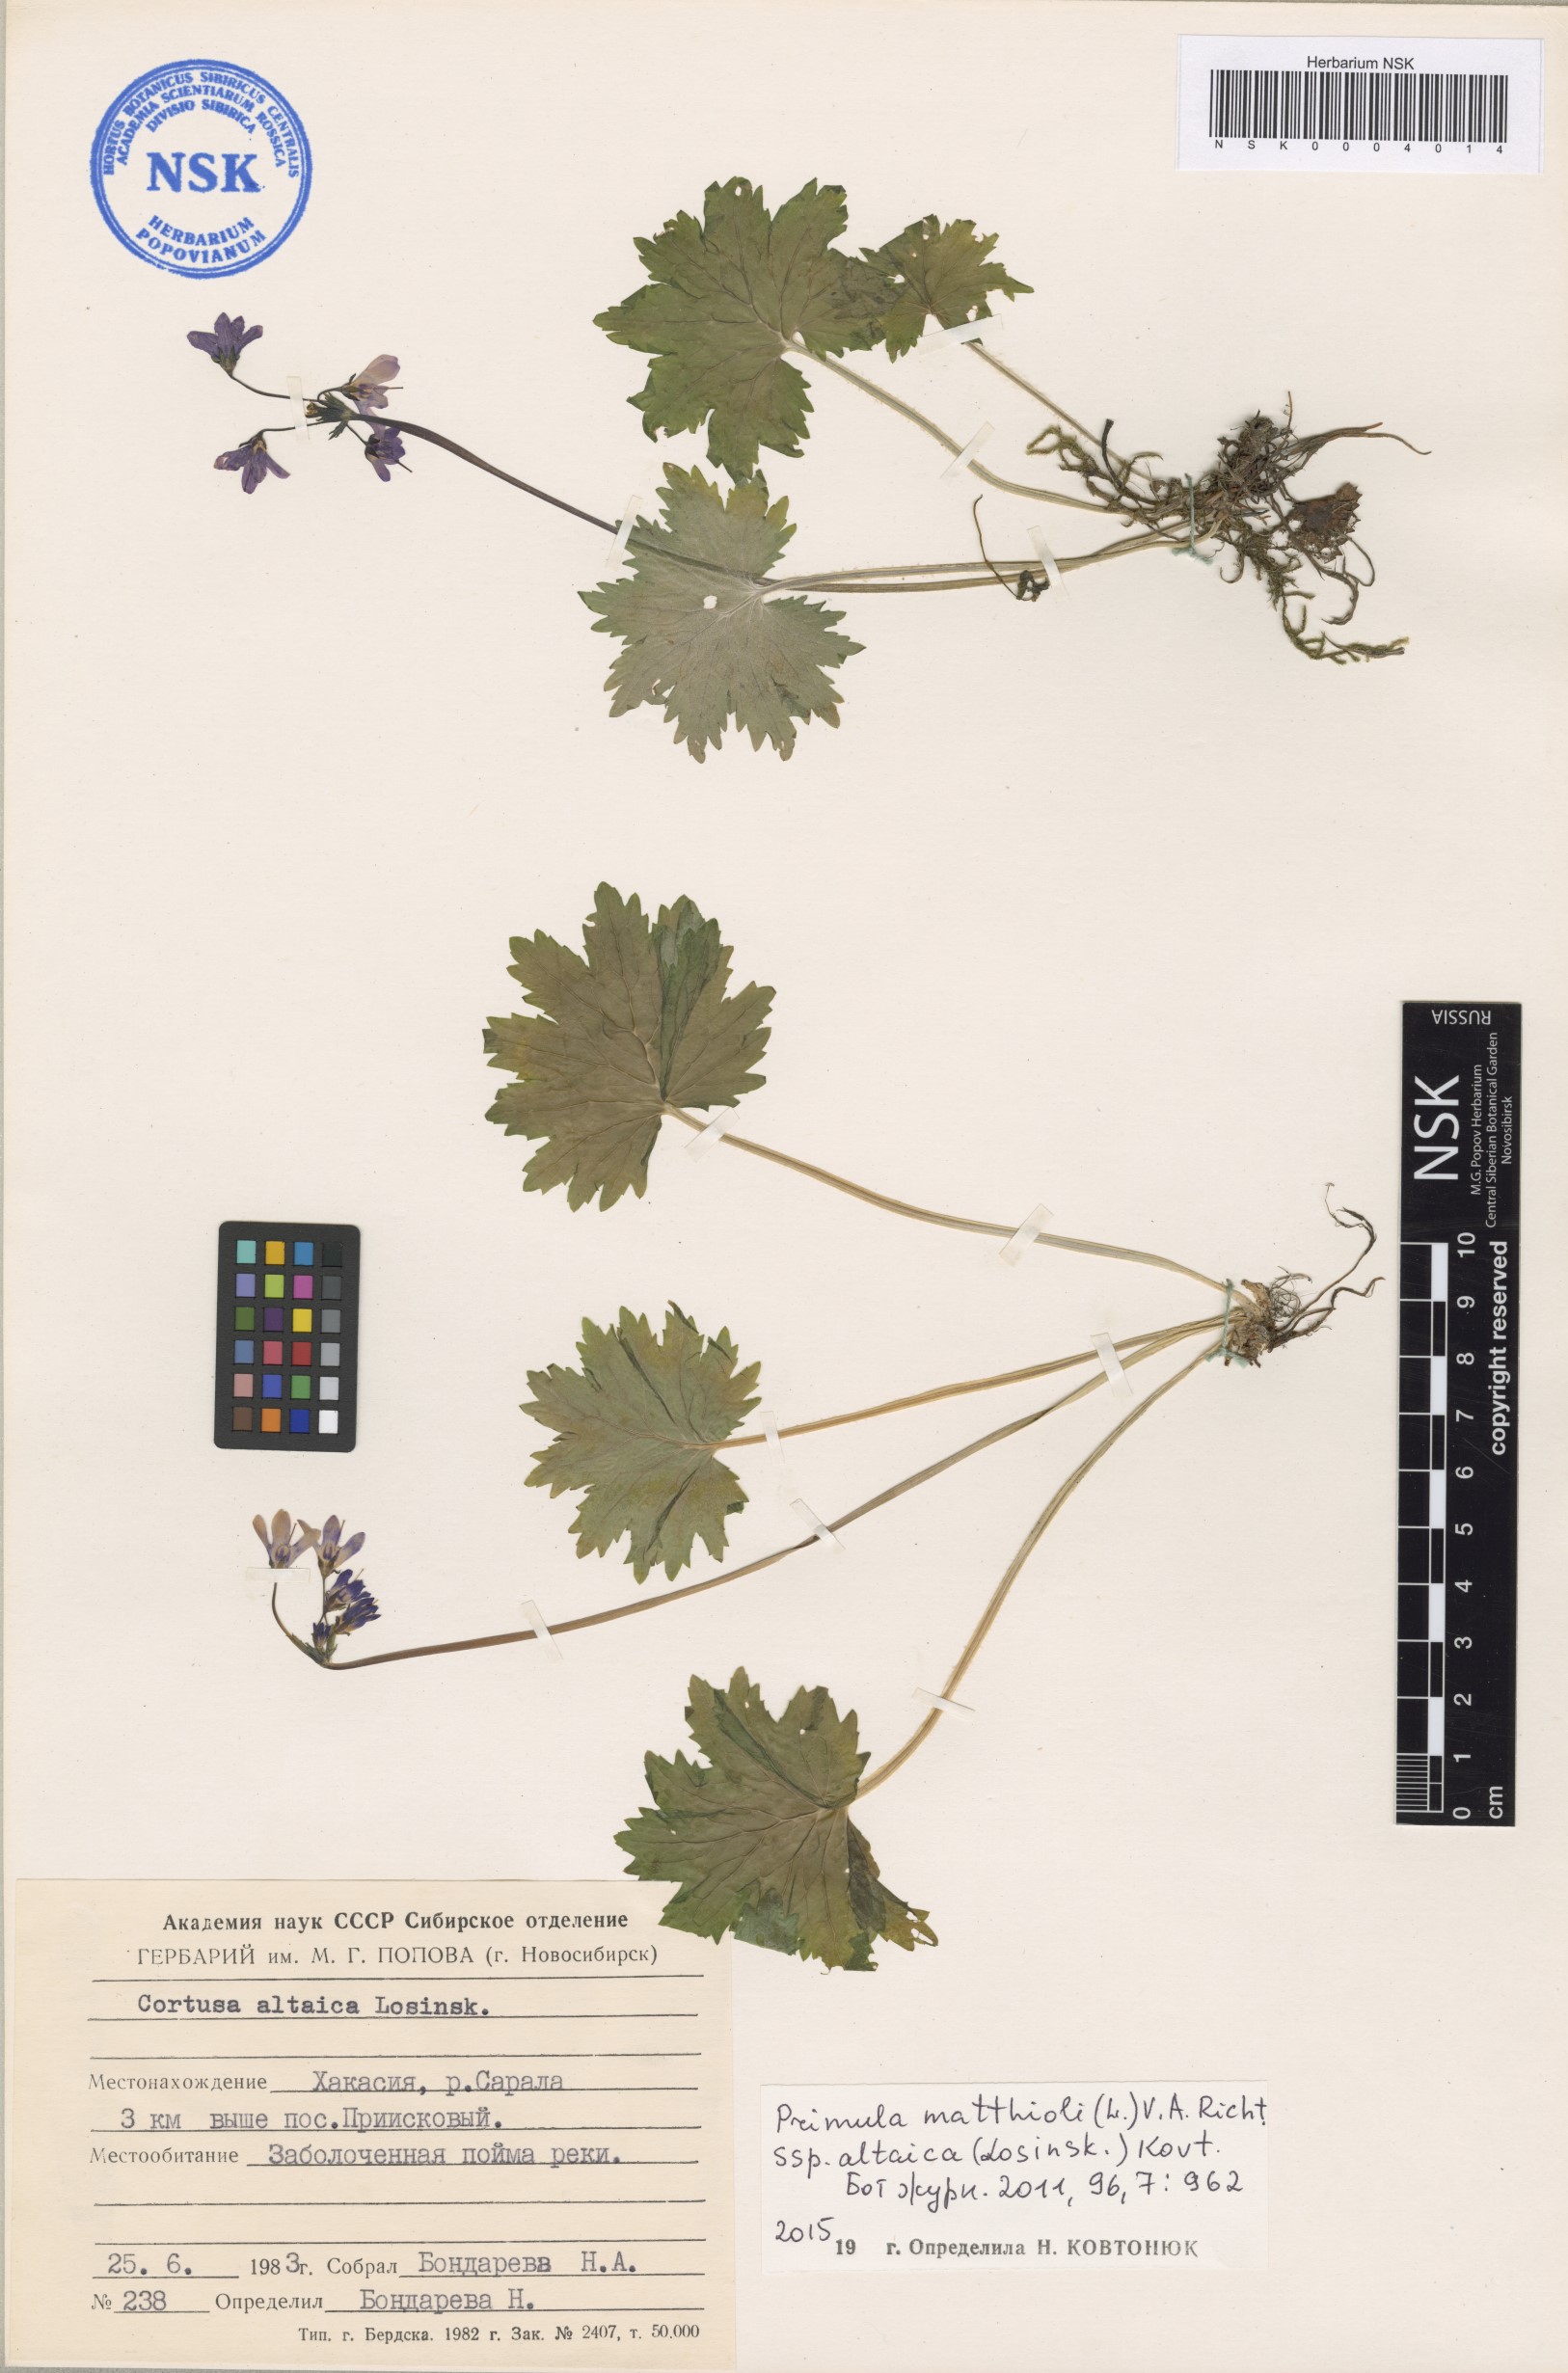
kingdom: Plantae
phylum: Tracheophyta
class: Magnoliopsida
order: Ericales
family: Primulaceae
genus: Primula
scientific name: Primula matthioli
